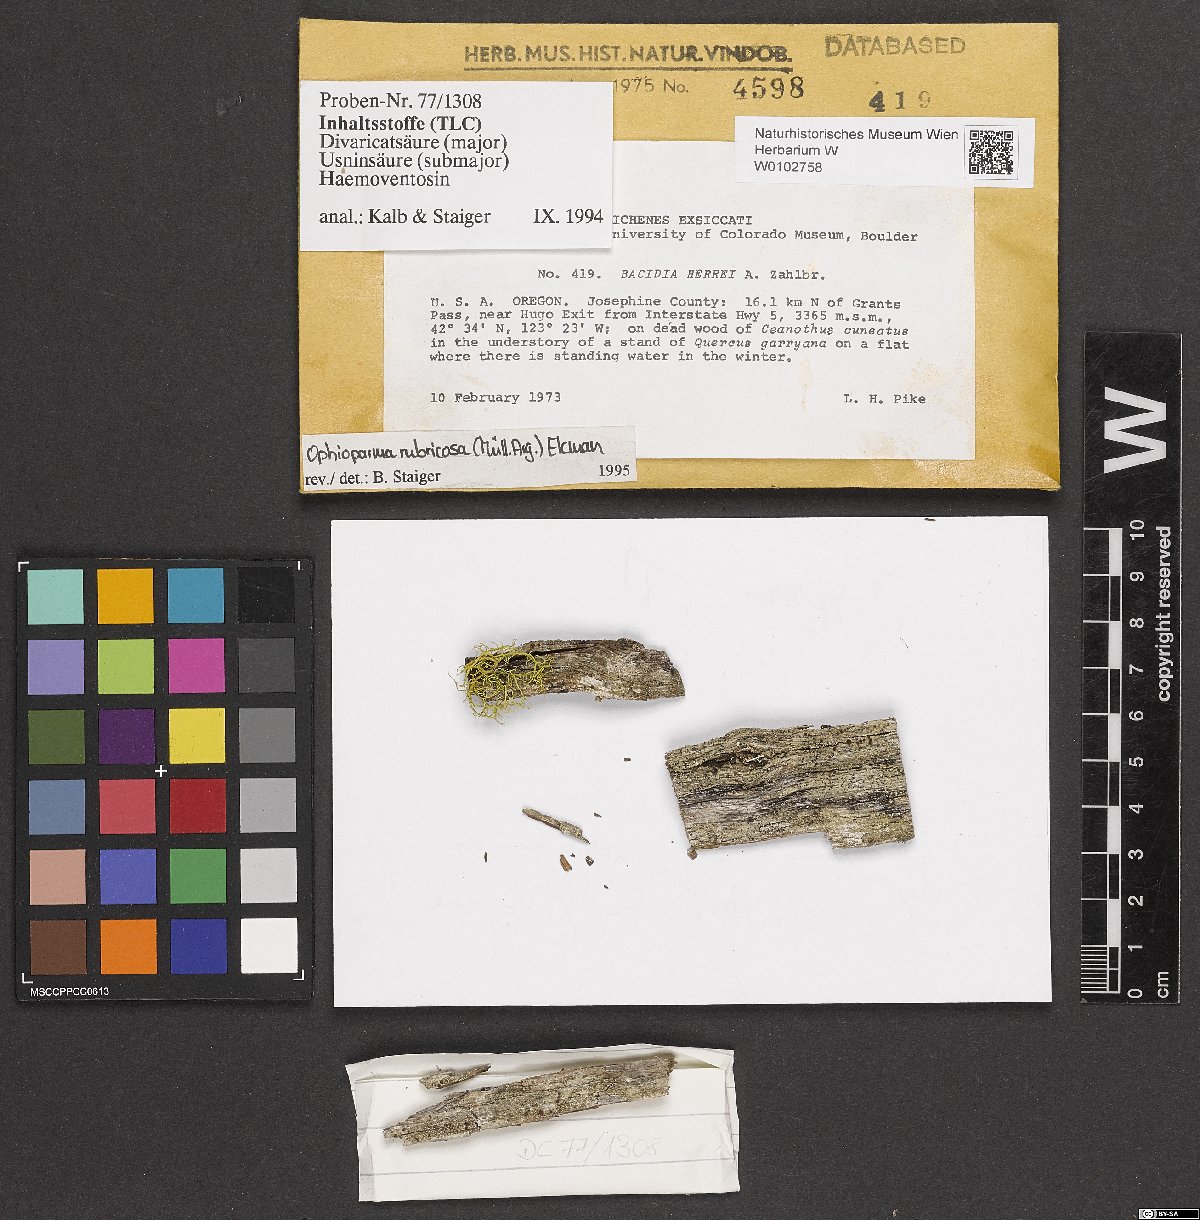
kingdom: Fungi
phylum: Ascomycota
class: Lecanoromycetes
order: Lecanorales
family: Ramalinaceae
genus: Bilimbia
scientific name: Bilimbia rubricosa
